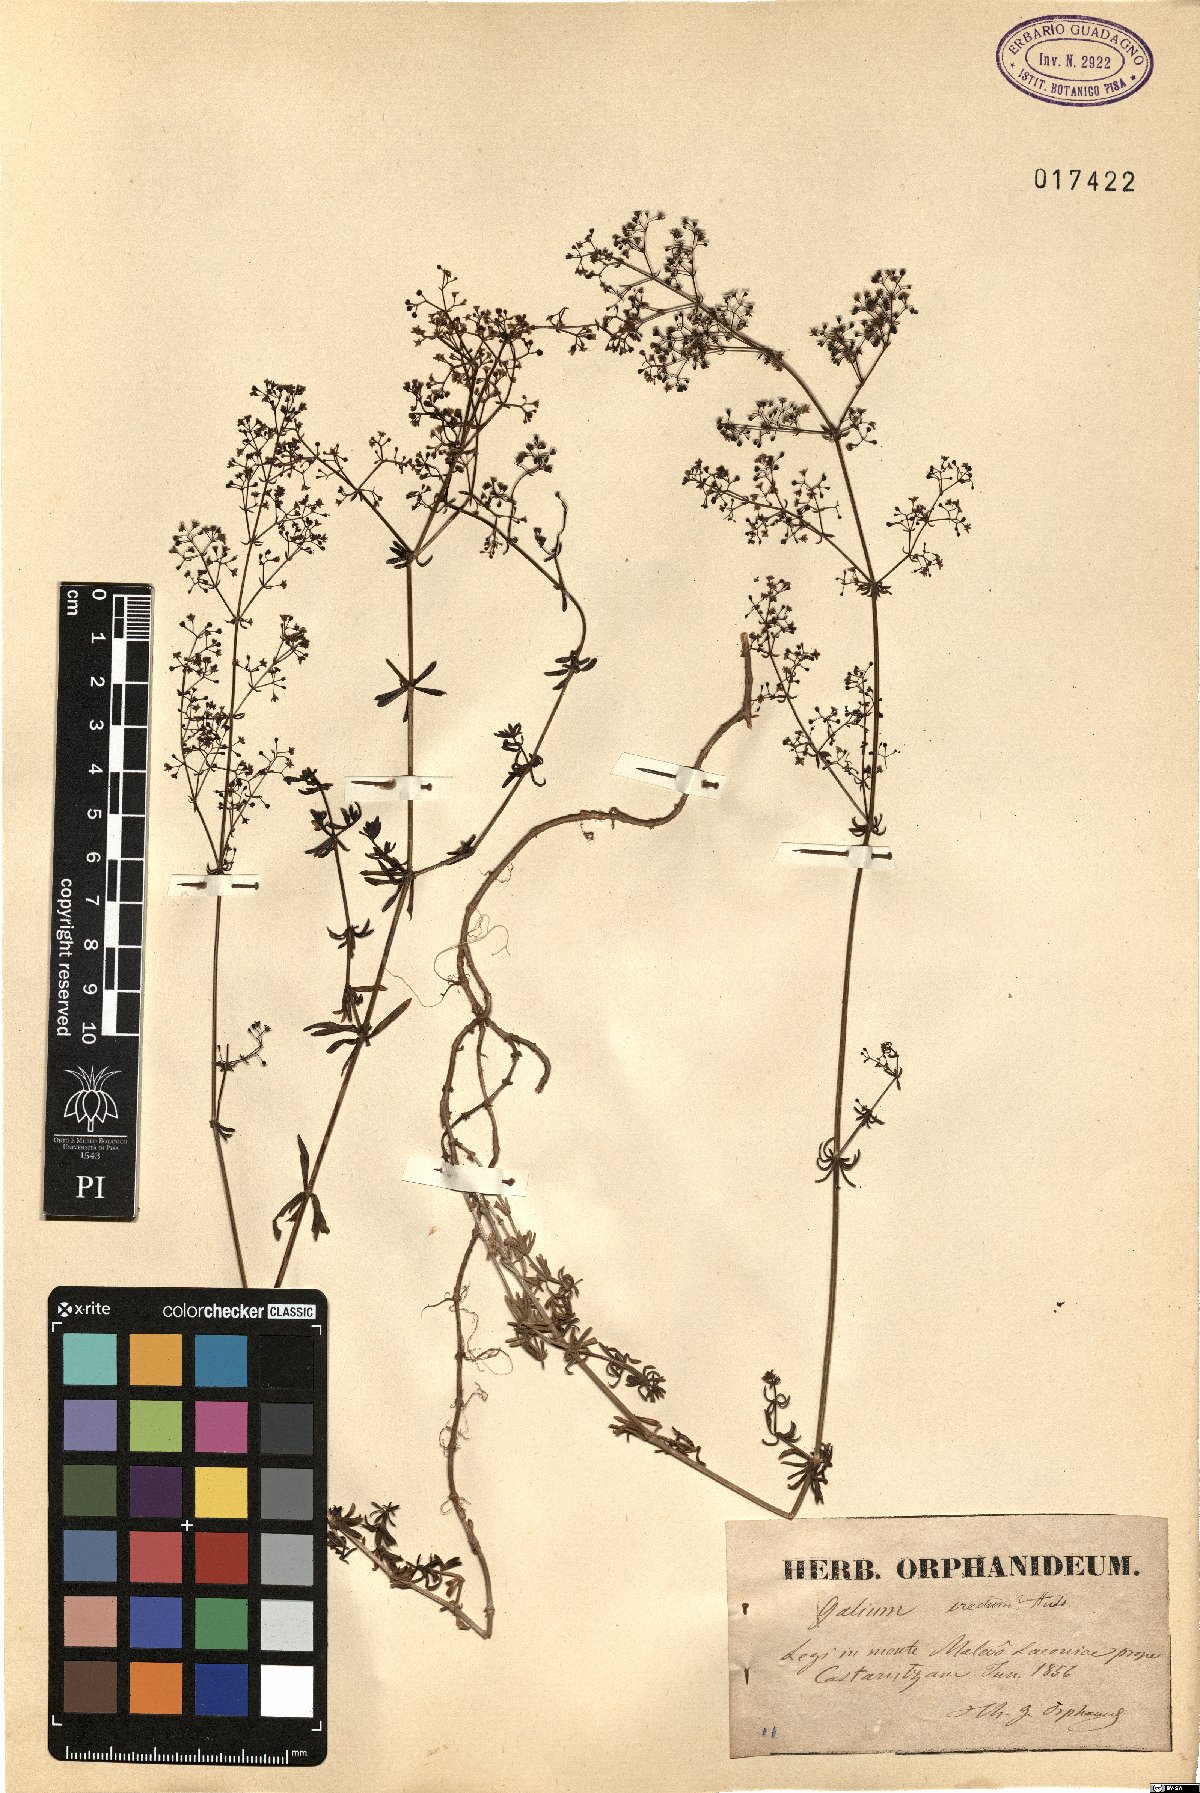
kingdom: Plantae
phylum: Tracheophyta
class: Magnoliopsida
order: Gentianales
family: Rubiaceae
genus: Galium
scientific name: Galium album
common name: White bedstraw
